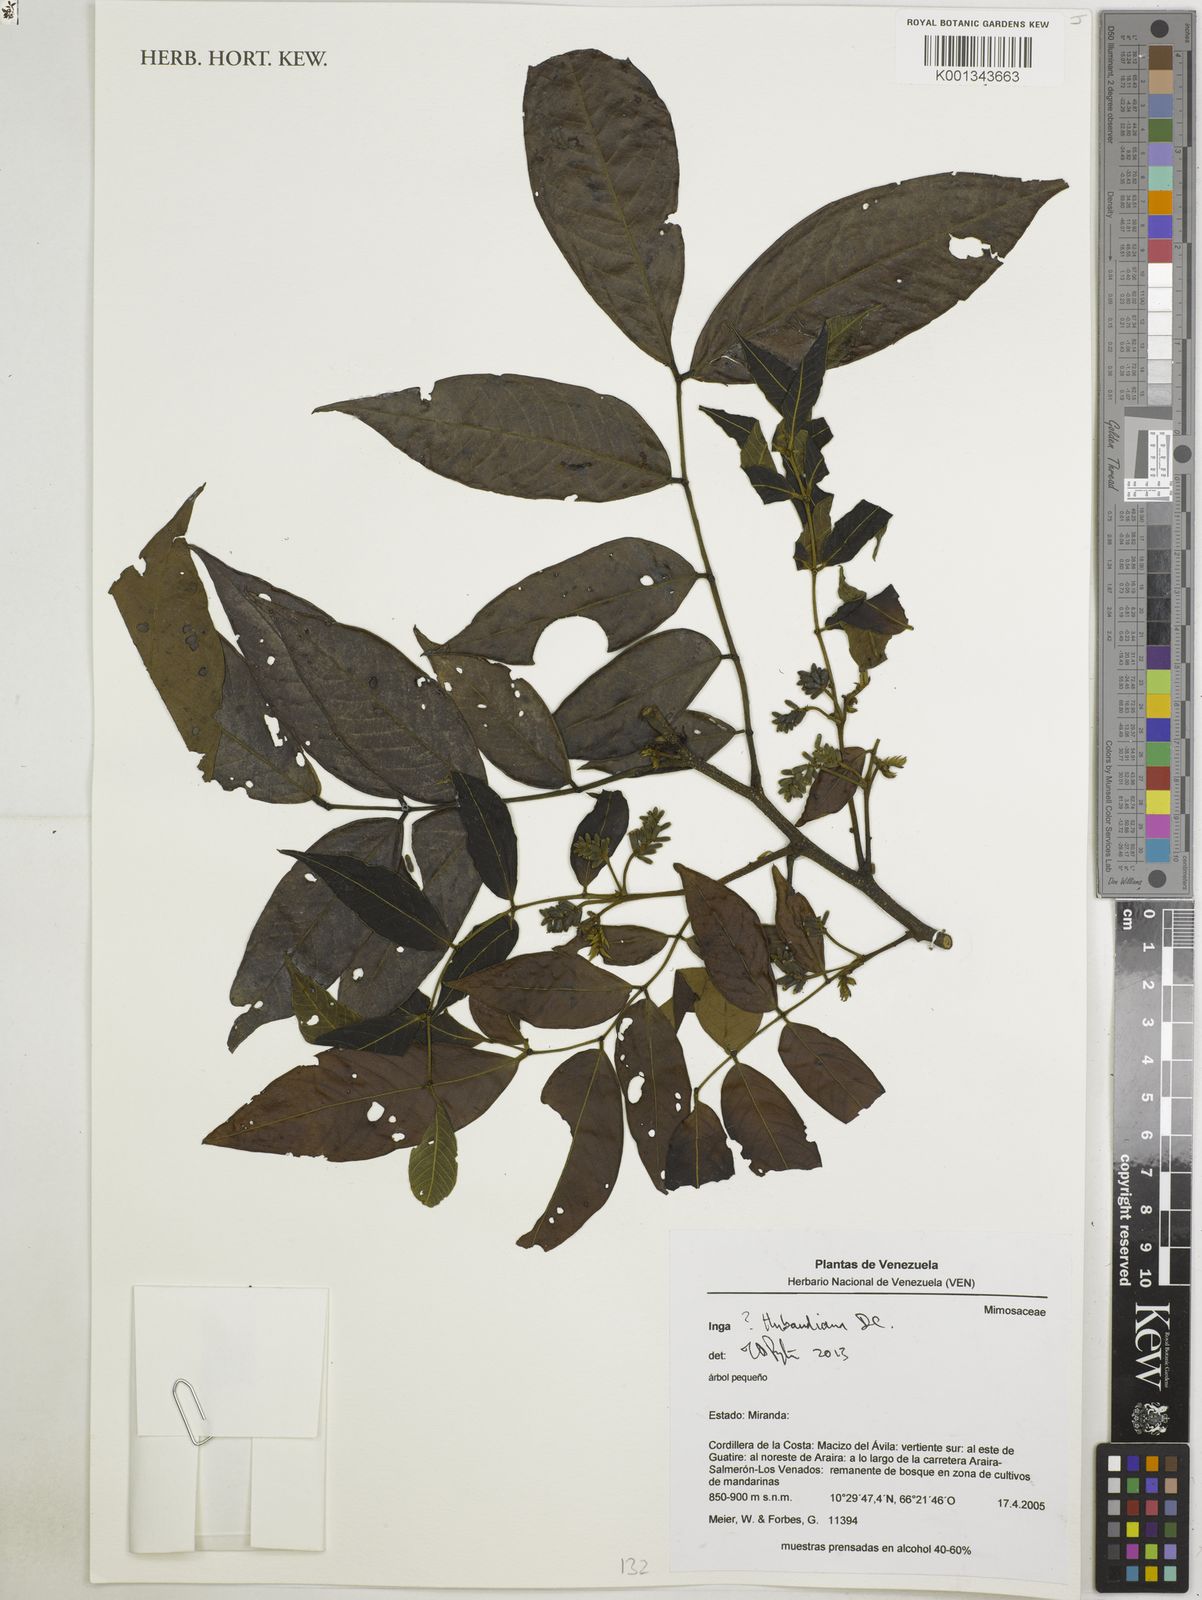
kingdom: Plantae
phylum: Tracheophyta
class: Magnoliopsida
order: Fabales
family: Fabaceae
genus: Inga
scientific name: Inga thibaudiana
